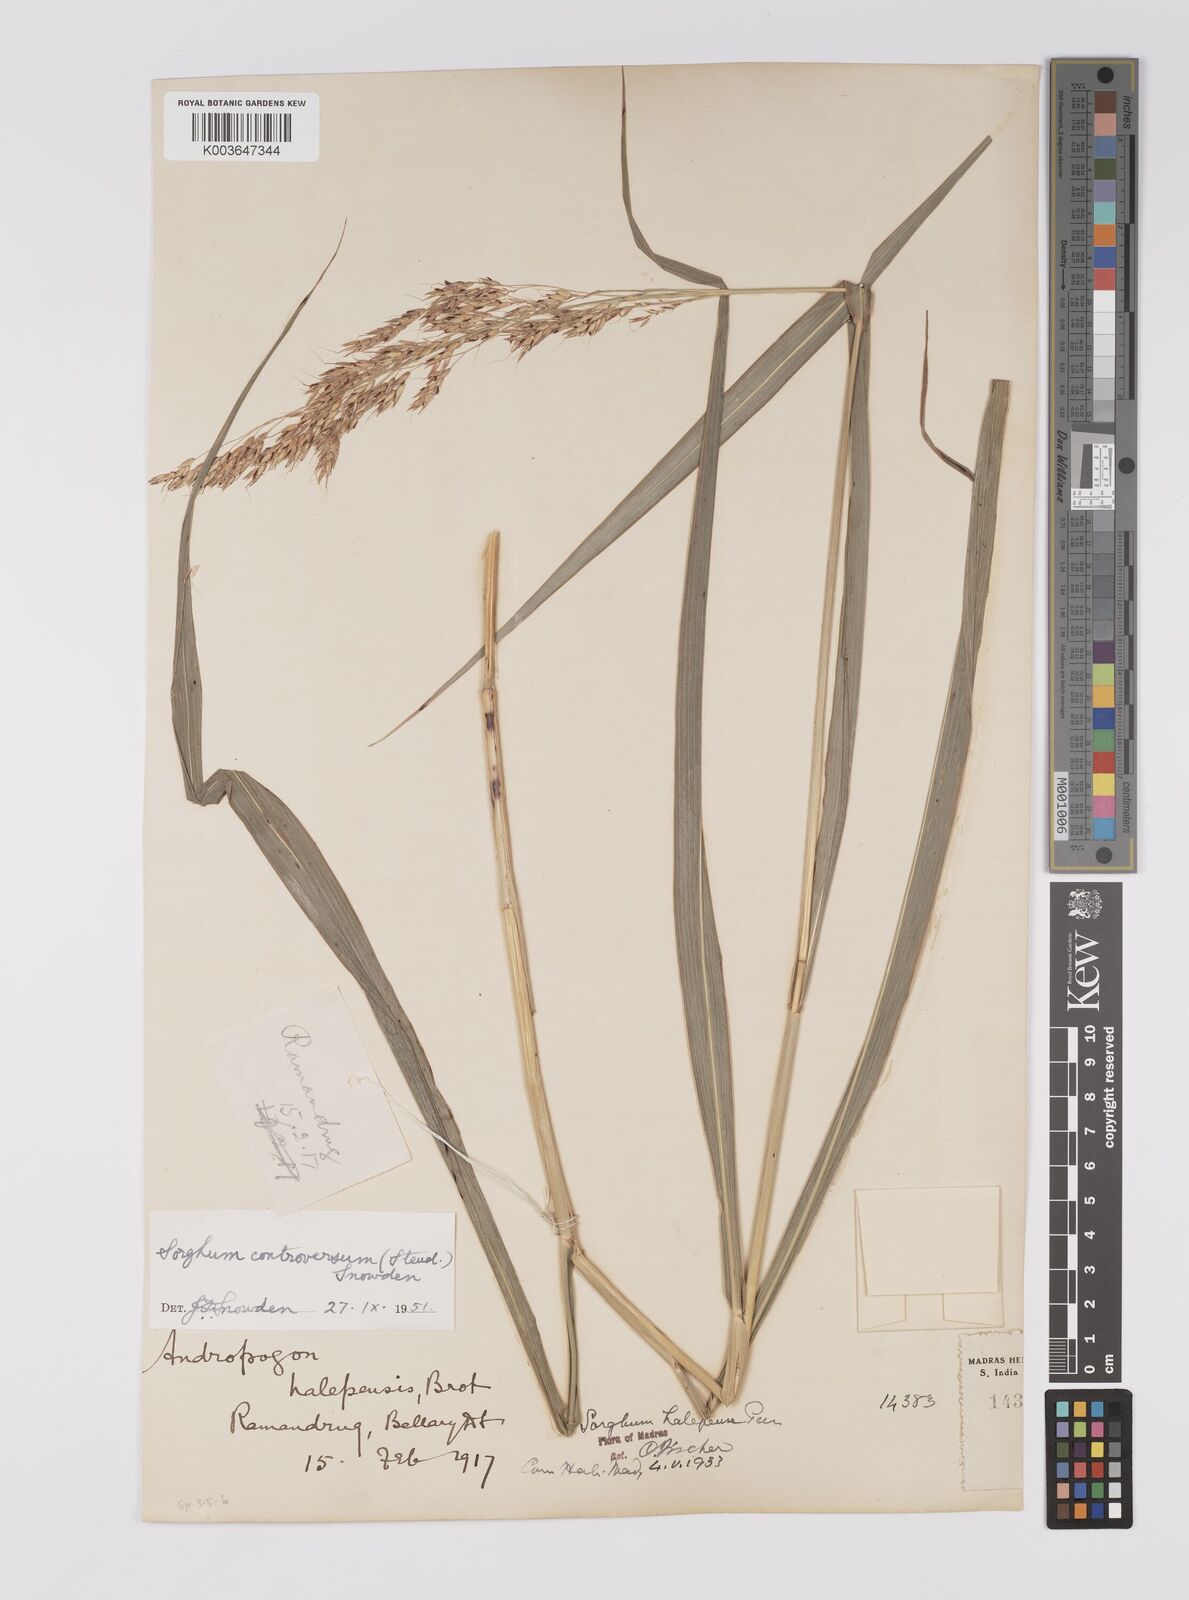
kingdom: Plantae
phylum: Tracheophyta
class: Liliopsida
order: Poales
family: Poaceae
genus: Sorghum
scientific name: Sorghum controversum
